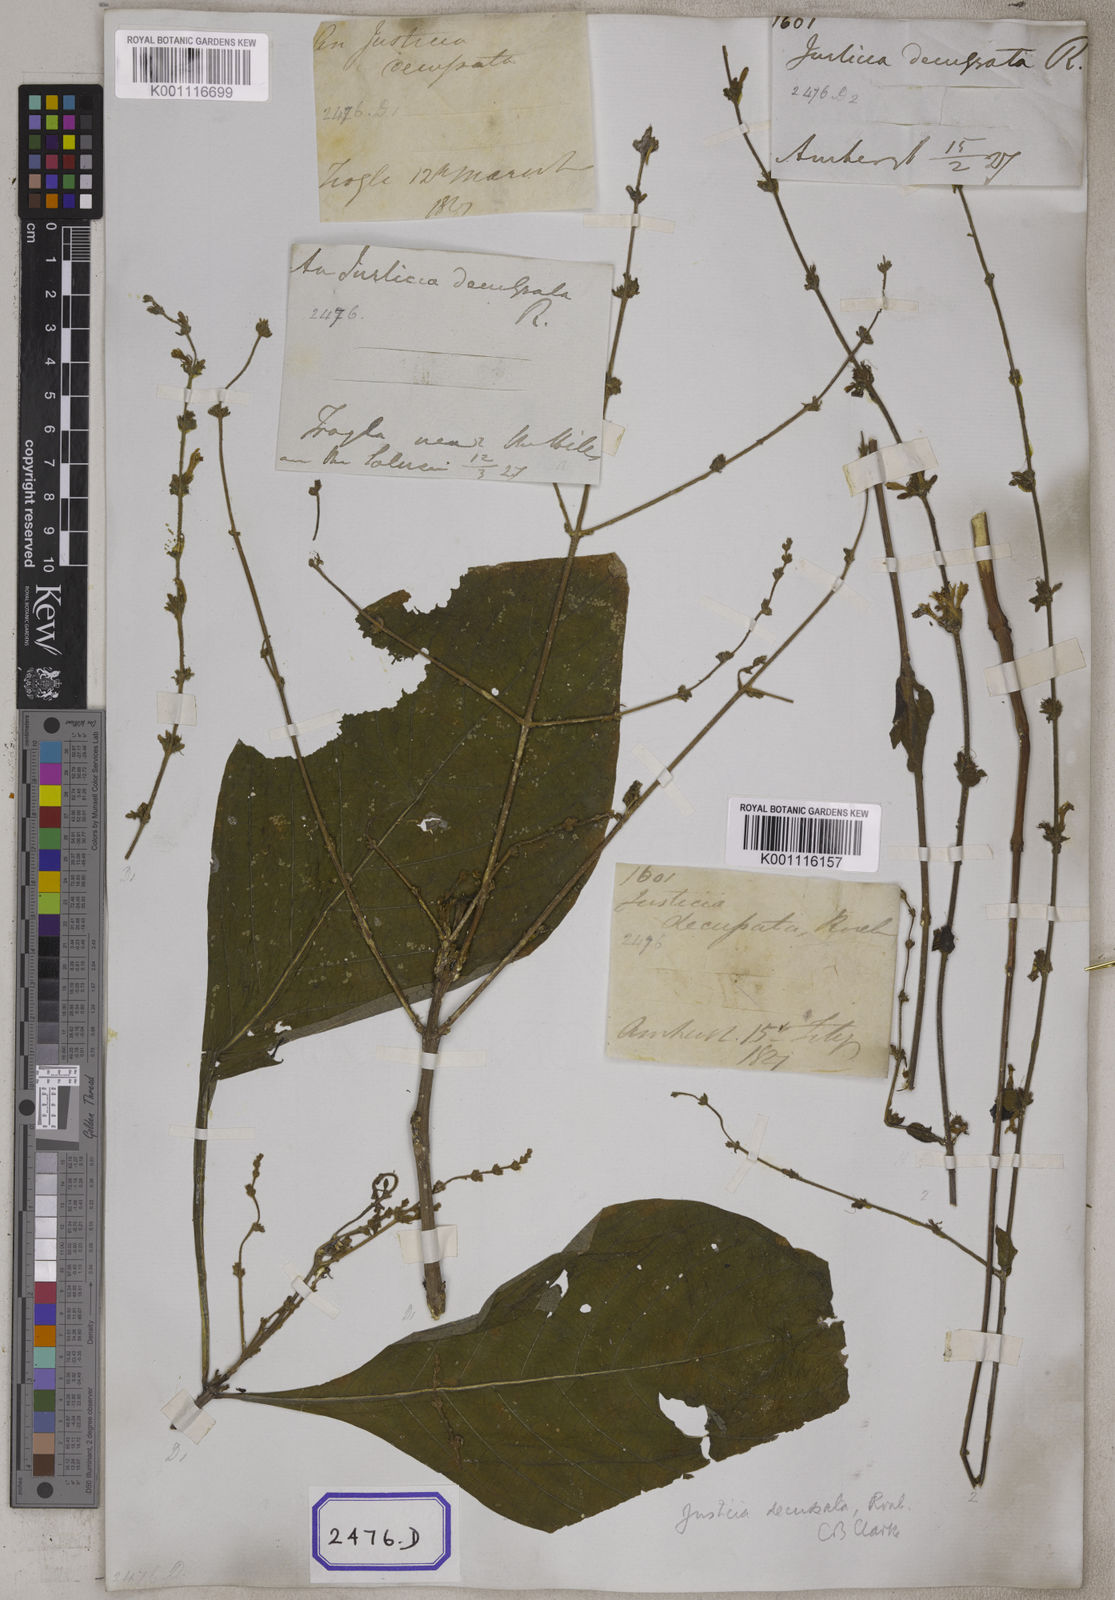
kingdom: Plantae
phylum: Tracheophyta
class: Magnoliopsida
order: Lamiales
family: Acanthaceae
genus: Justicia
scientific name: Justicia decussata
